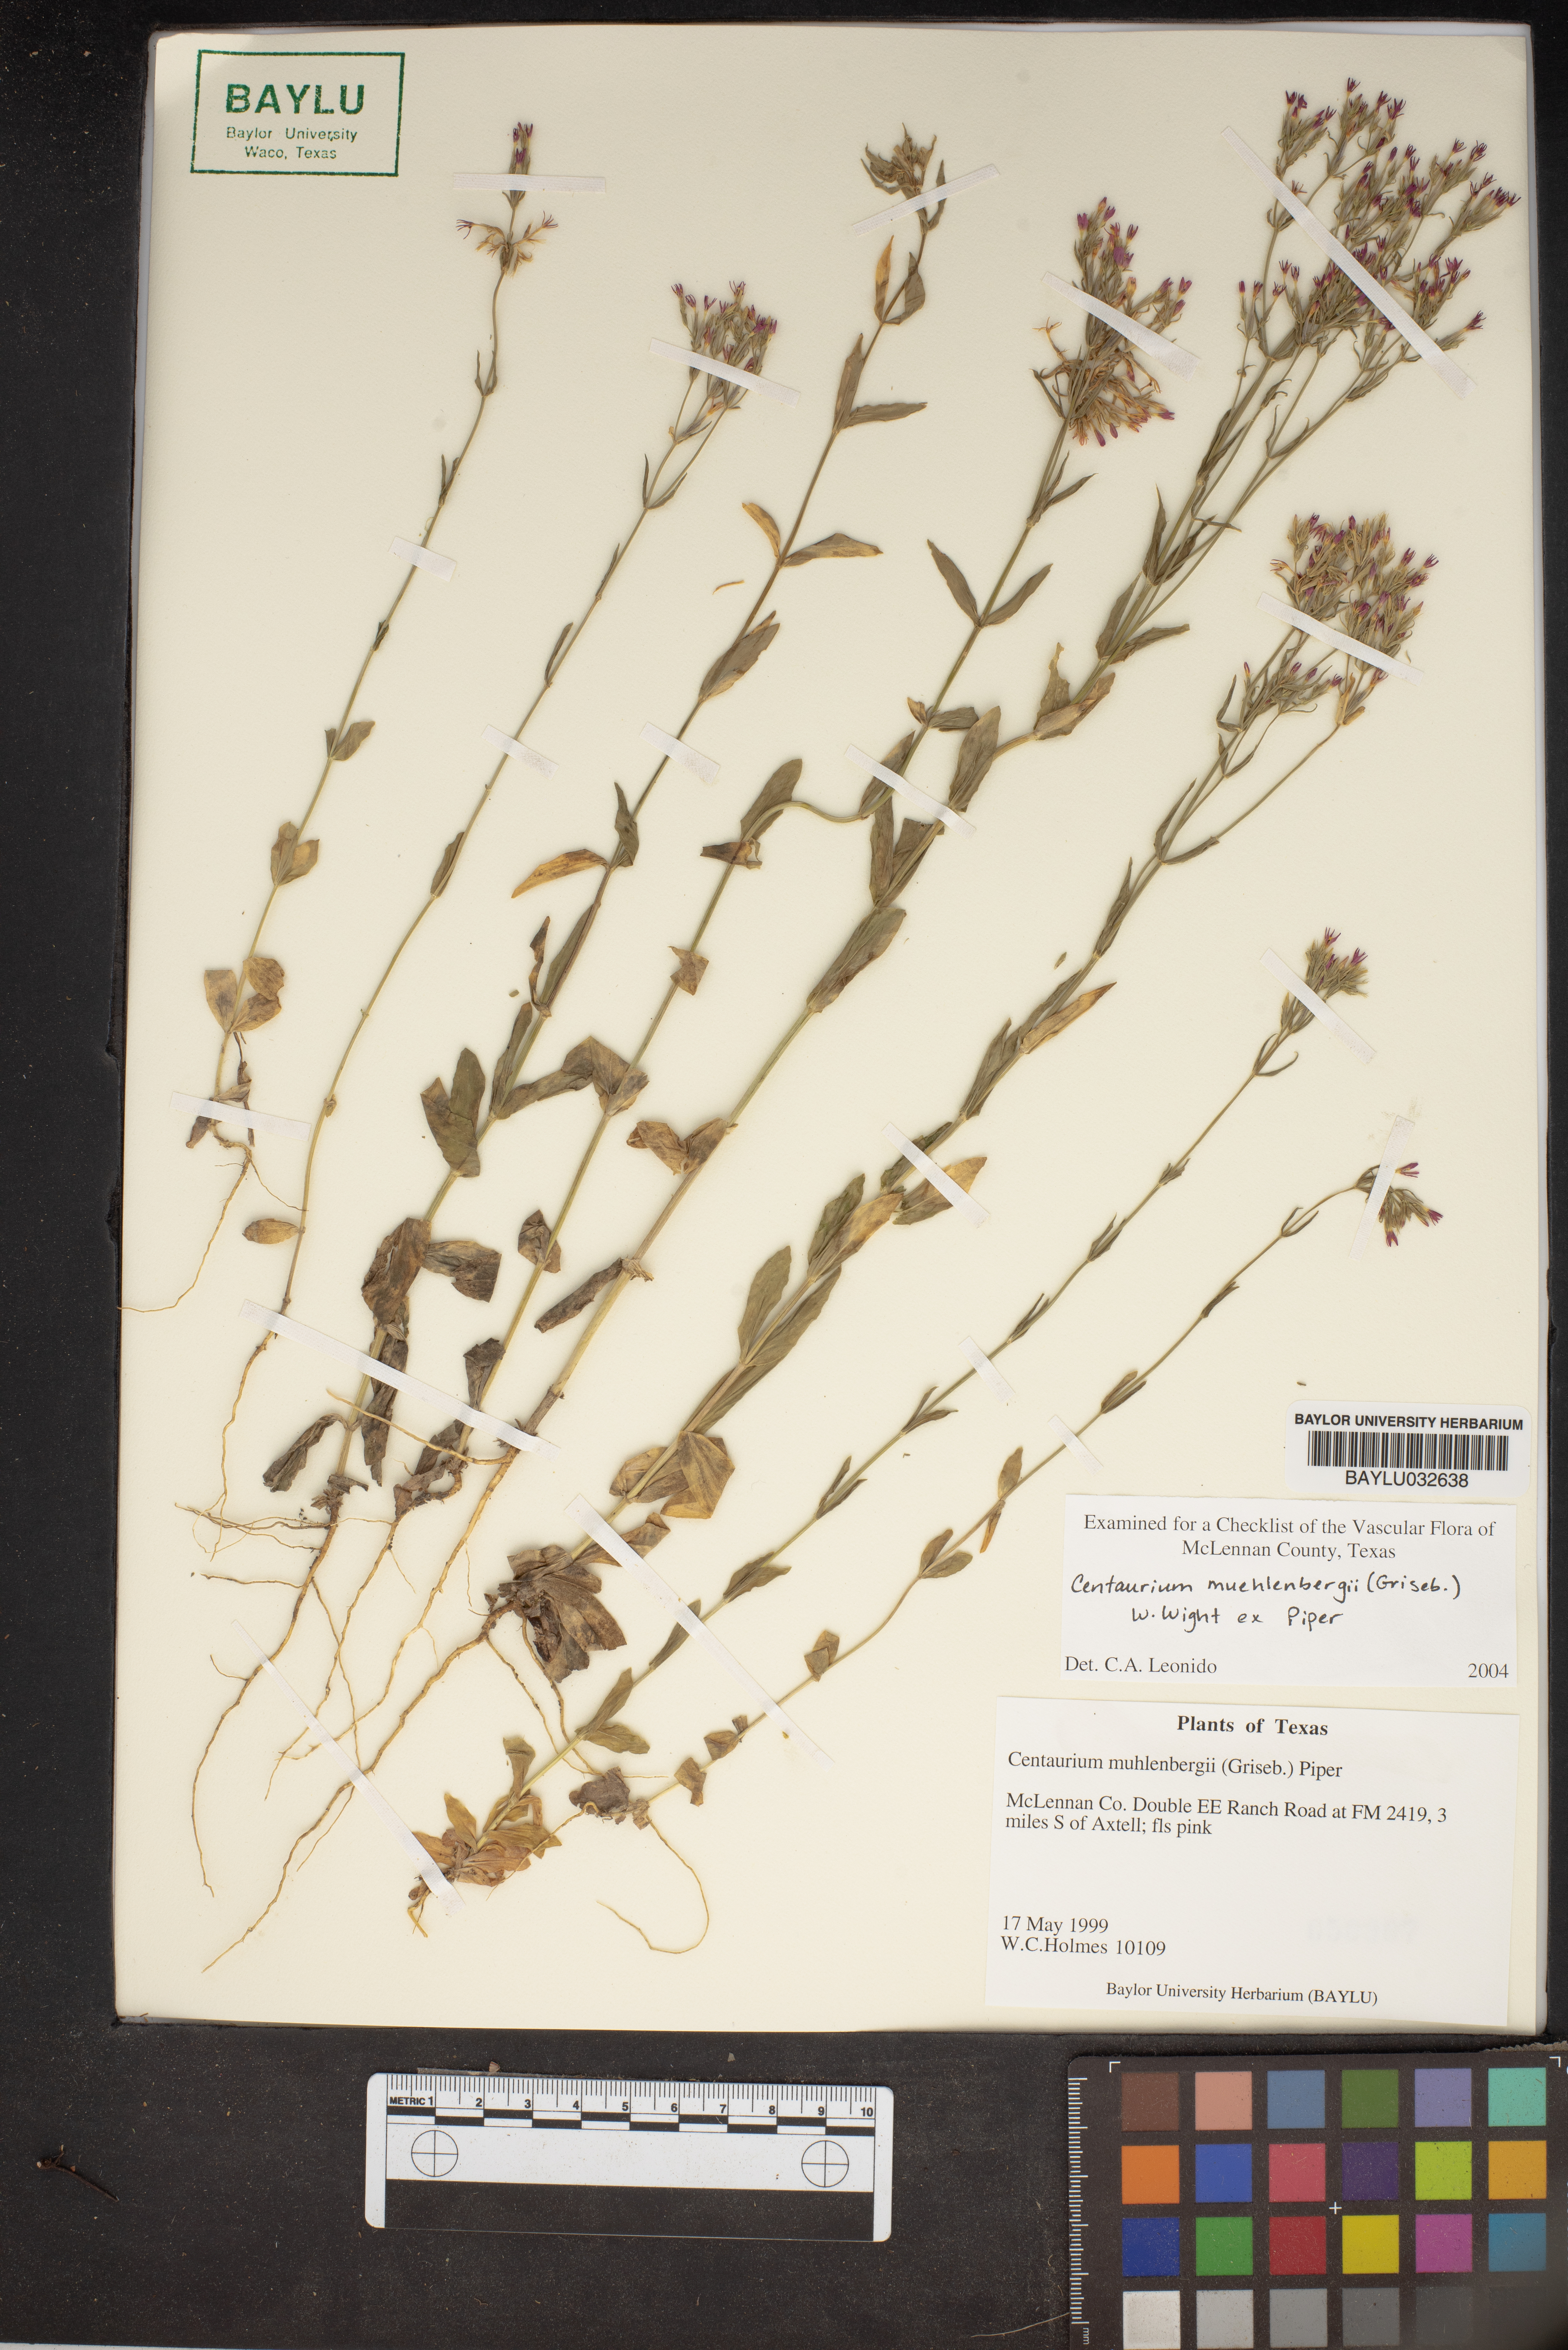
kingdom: Plantae
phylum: Tracheophyta
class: Magnoliopsida
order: Gentianales
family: Gentianaceae
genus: Zeltnera
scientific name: Zeltnera muhlenbergii
